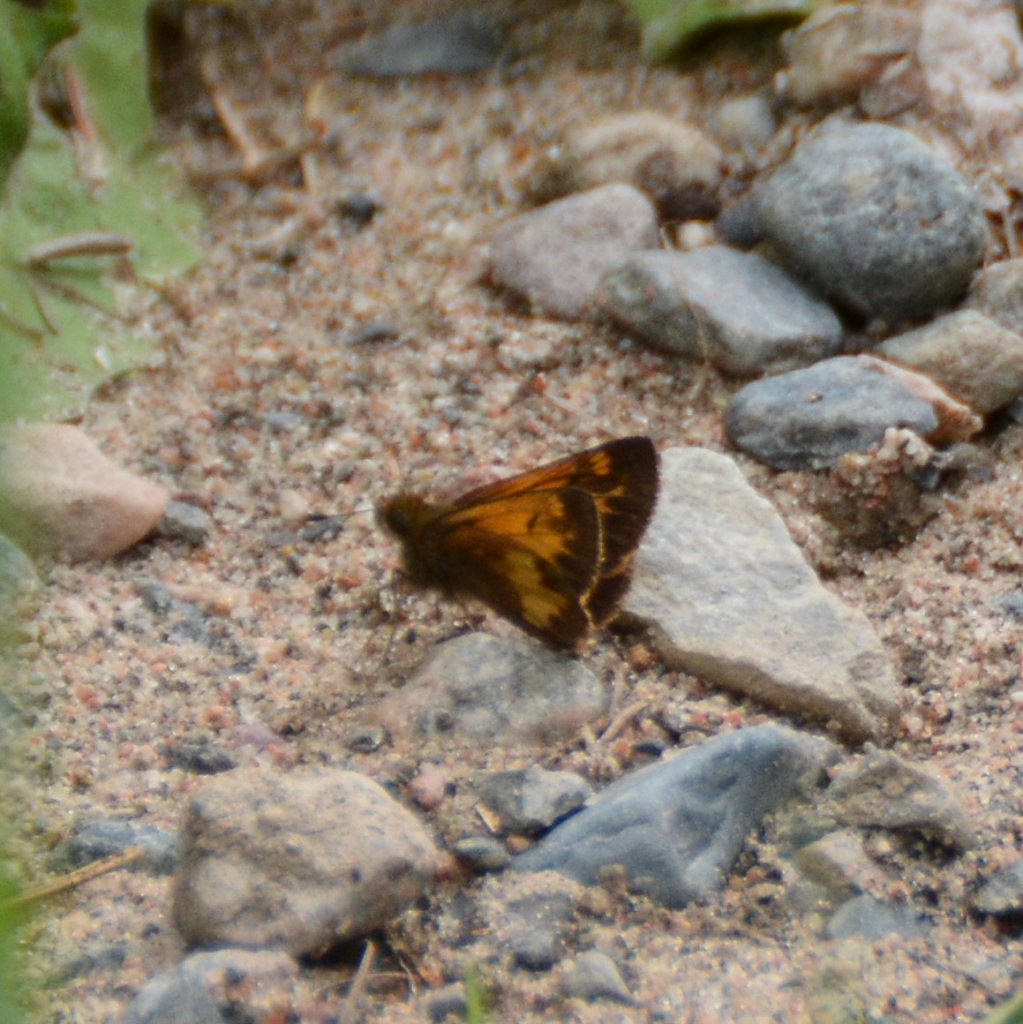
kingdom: Animalia
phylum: Arthropoda
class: Insecta
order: Lepidoptera
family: Hesperiidae
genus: Lon
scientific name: Lon hobomok
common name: Hobomok Skipper
